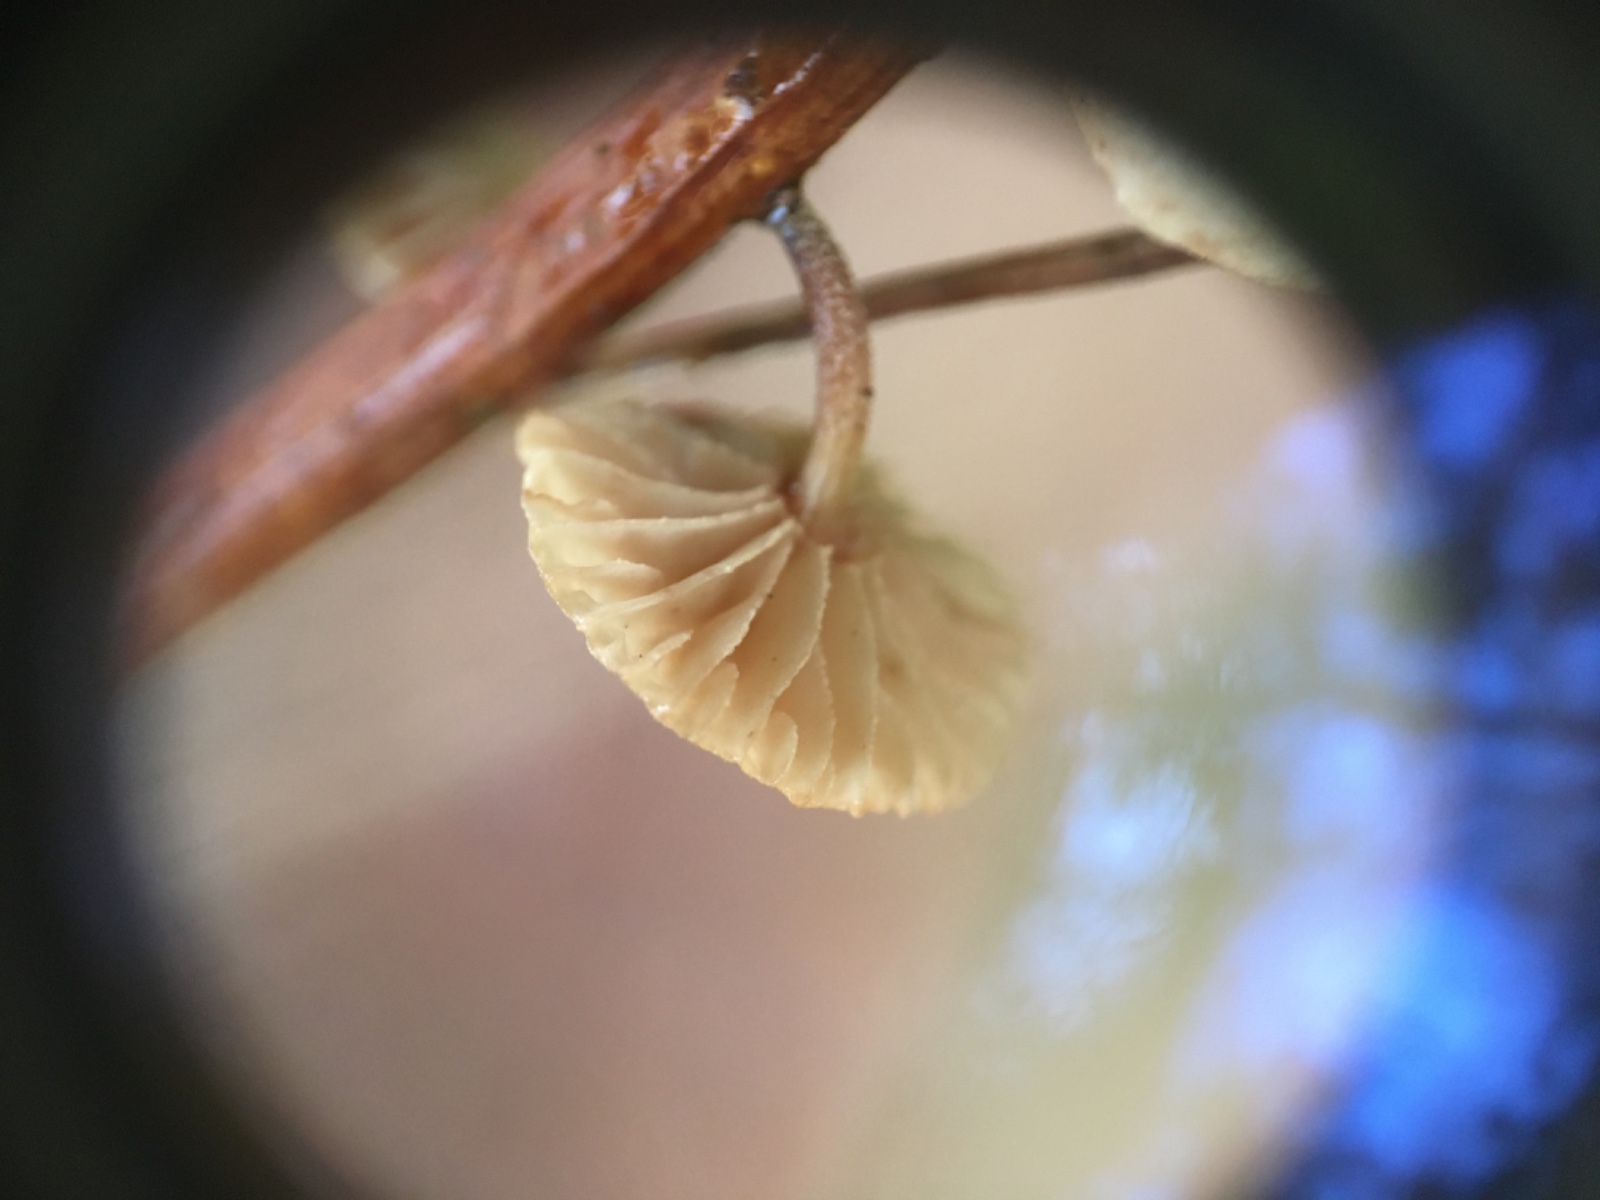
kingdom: Fungi
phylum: Basidiomycota
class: Agaricomycetes
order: Agaricales
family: Omphalotaceae
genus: Collybiopsis
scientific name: Collybiopsis ramealis
